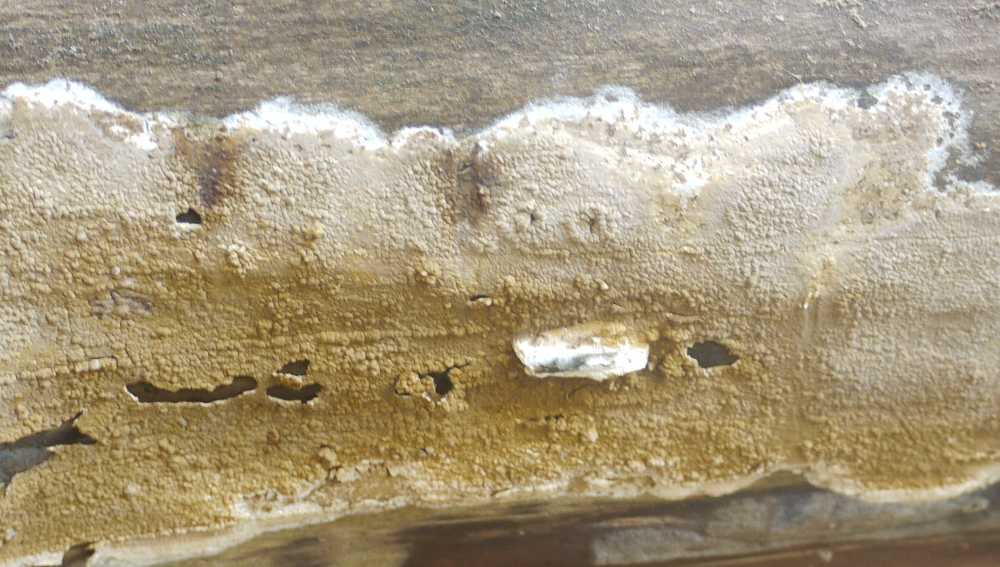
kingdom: Fungi
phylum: Basidiomycota
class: Agaricomycetes
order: Boletales
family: Coniophoraceae
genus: Coniophora
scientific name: Coniophora puteana
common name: gul tømmersvamp
